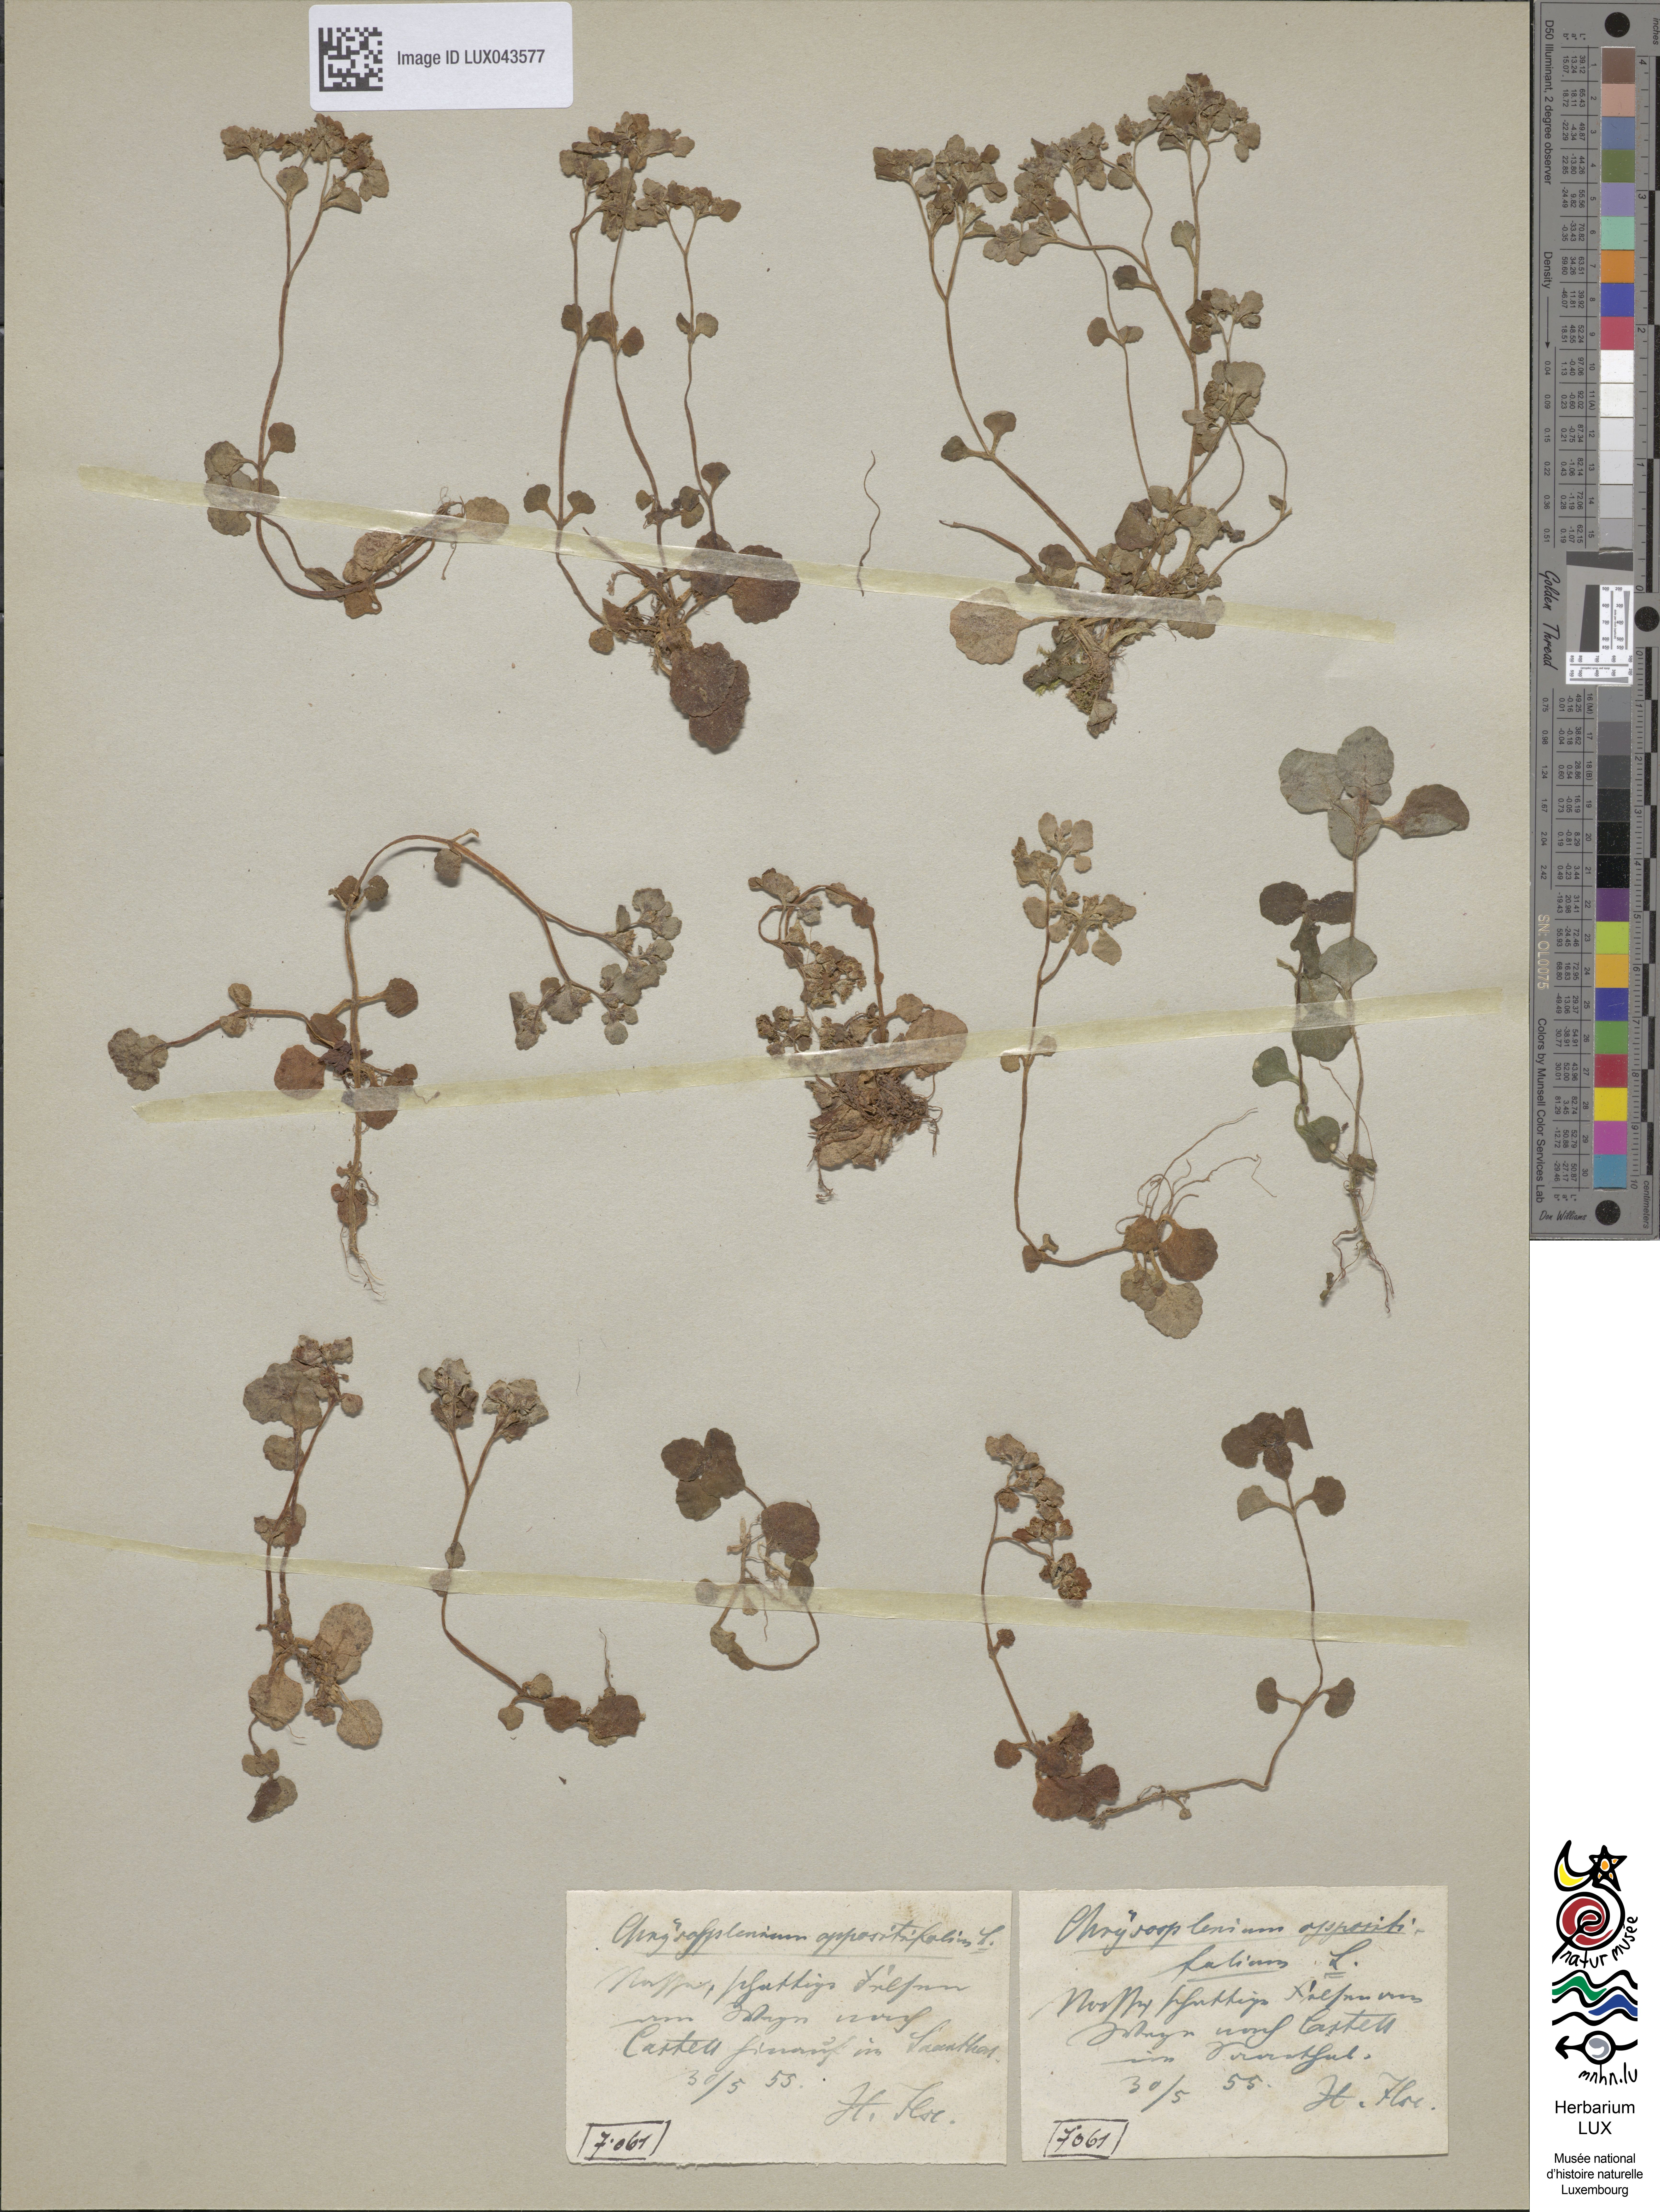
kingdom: Plantae
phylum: Tracheophyta
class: Magnoliopsida
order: Saxifragales
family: Saxifragaceae
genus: Chrysosplenium
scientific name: Chrysosplenium oppositifolium
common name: Opposite-leaved golden-saxifrage
